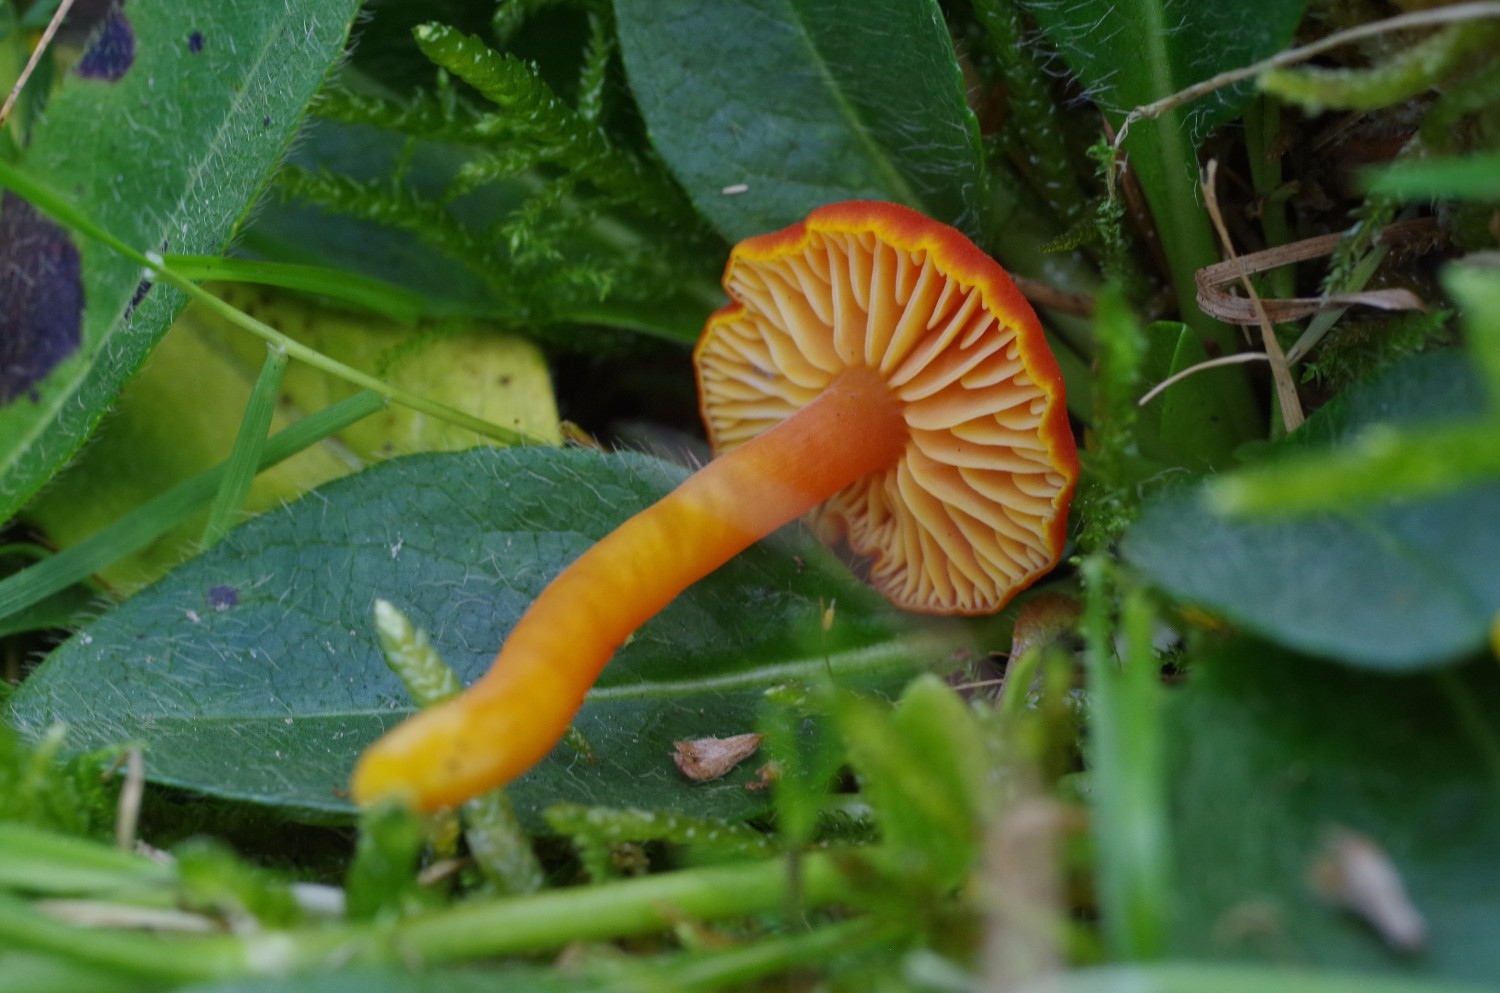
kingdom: Fungi
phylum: Basidiomycota
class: Agaricomycetes
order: Agaricales
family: Hygrophoraceae
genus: Hygrocybe
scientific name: Hygrocybe miniata
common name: mønje-vokshat
